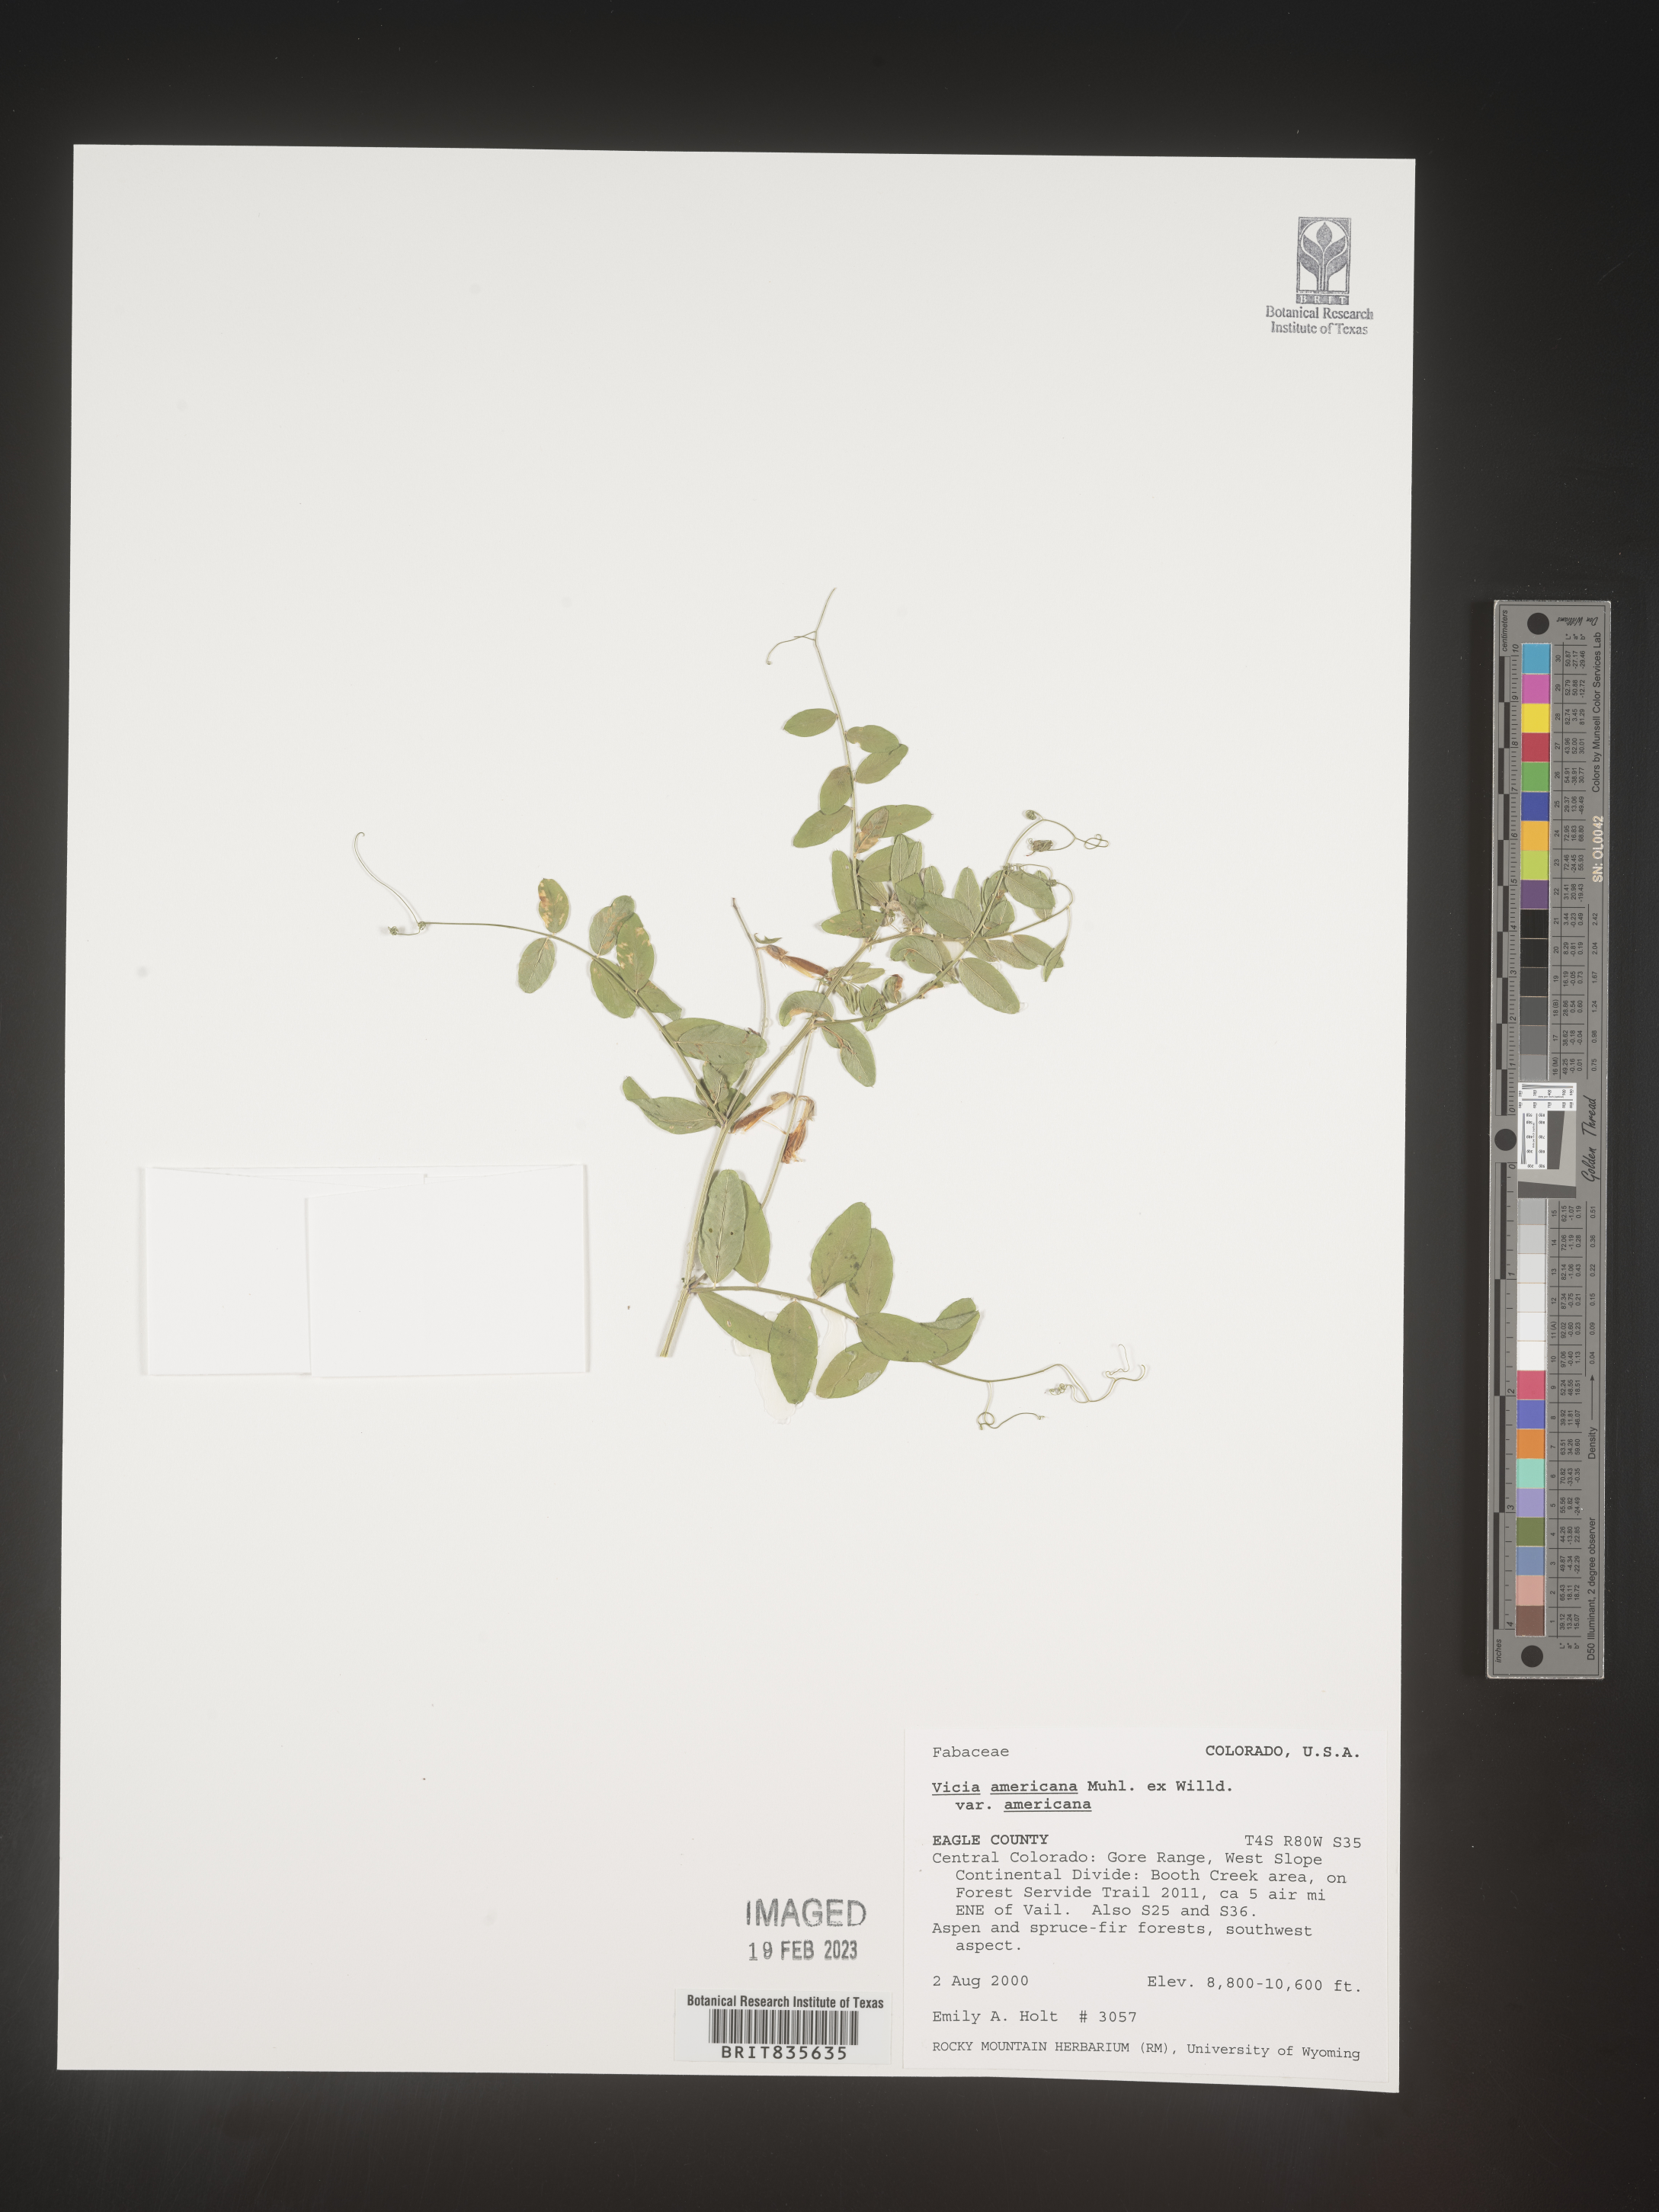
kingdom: Plantae
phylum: Tracheophyta
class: Magnoliopsida
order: Fabales
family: Fabaceae
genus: Vicia
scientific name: Vicia americana
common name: American vetch
